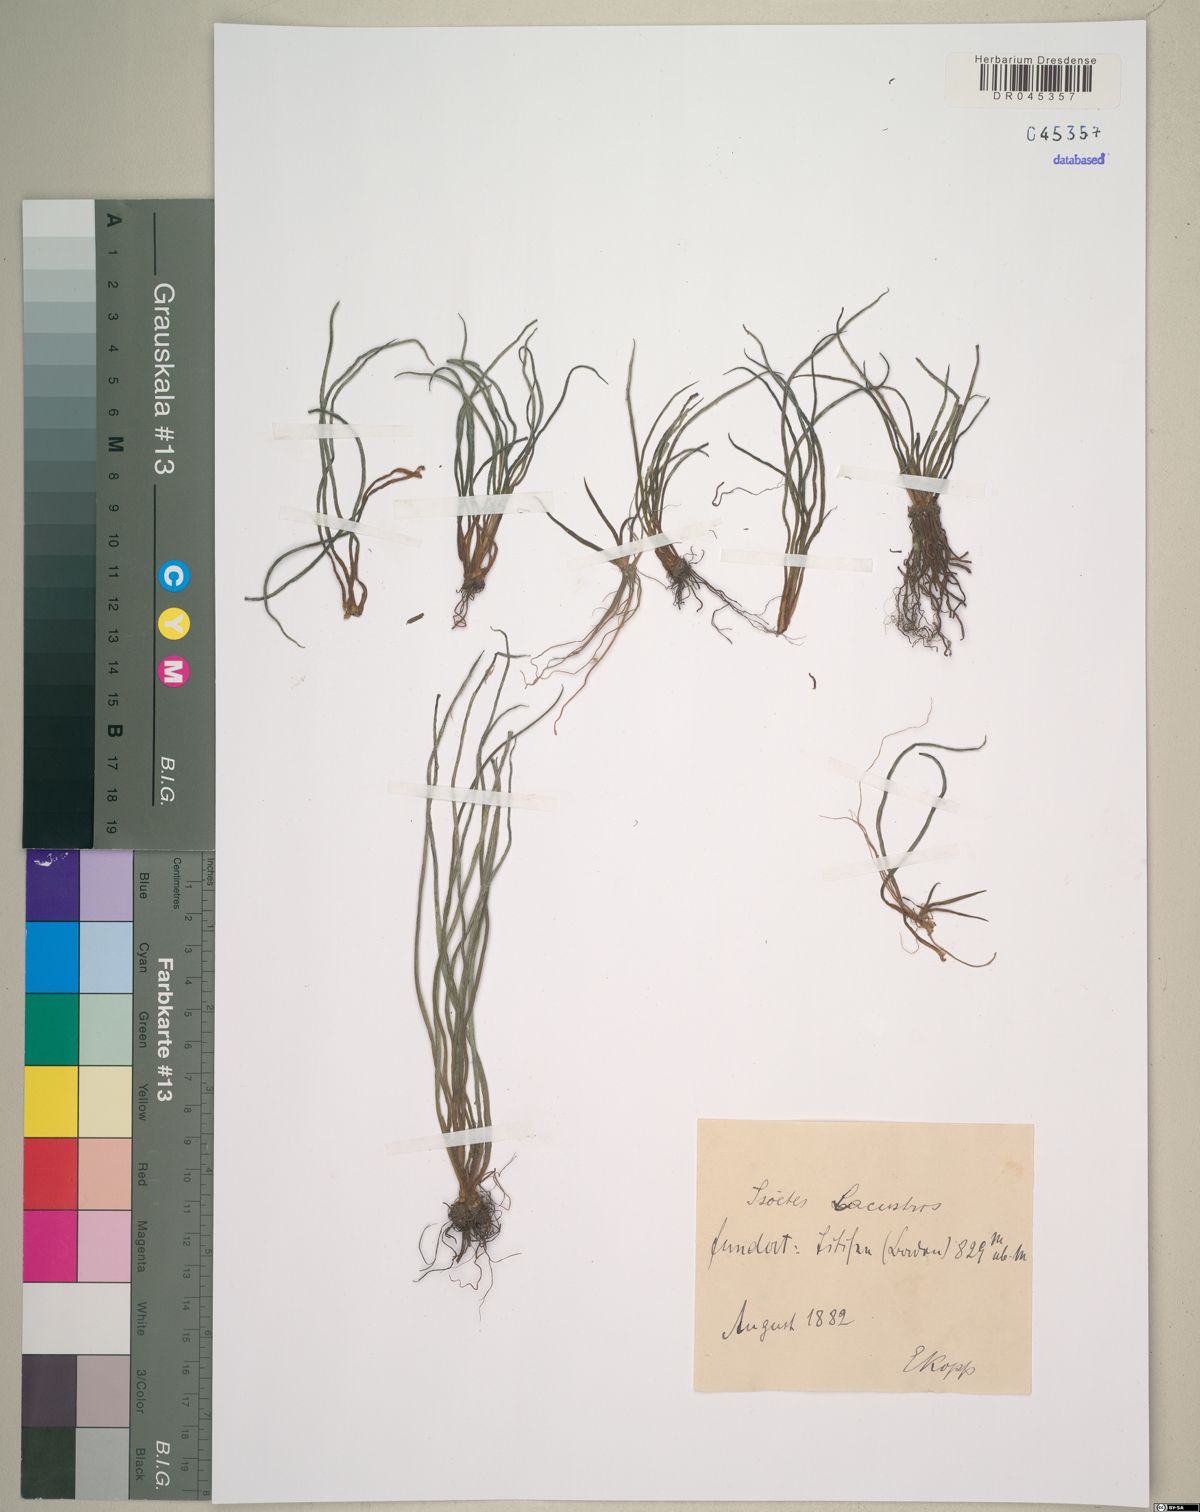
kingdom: Plantae
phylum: Tracheophyta
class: Lycopodiopsida
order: Isoetales
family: Isoetaceae
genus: Isoetes
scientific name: Isoetes lacustris
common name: Common quillwort
